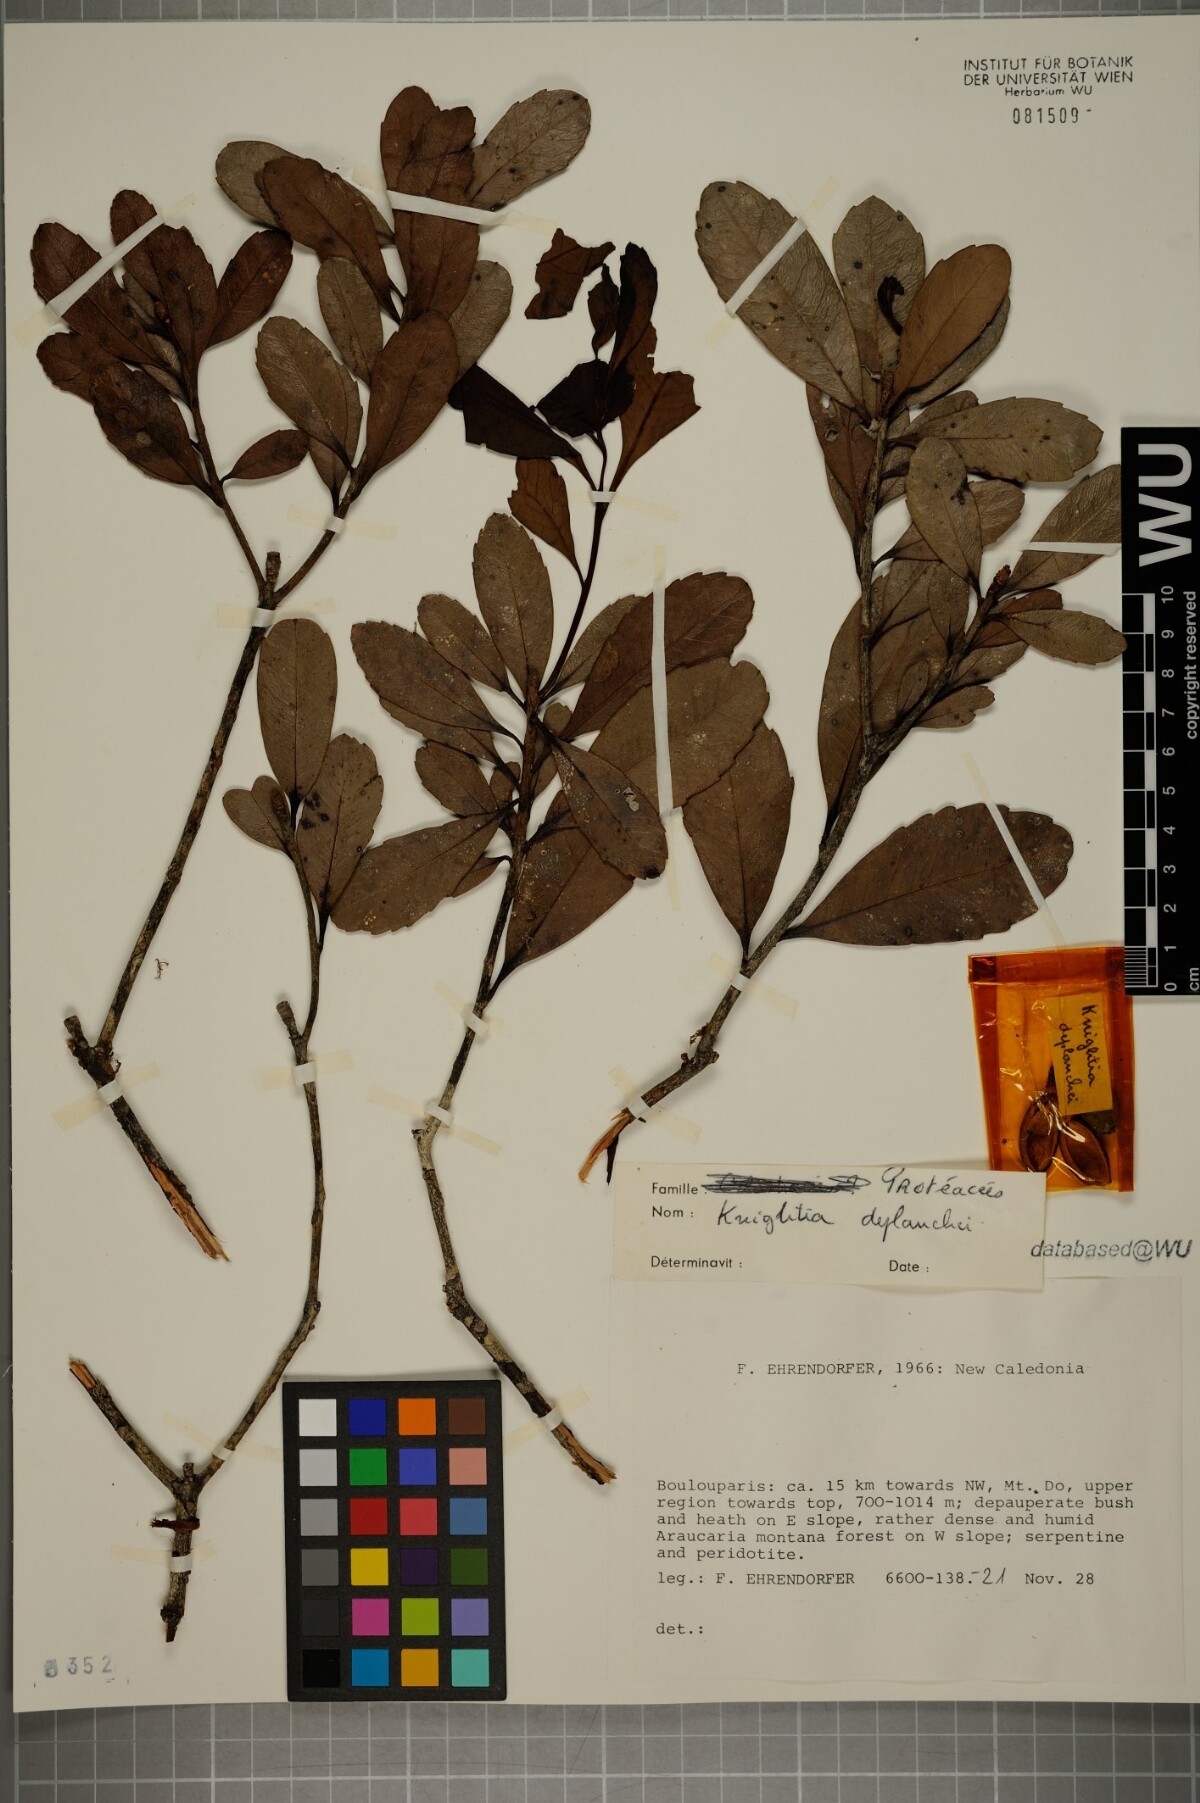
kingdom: Plantae
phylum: Tracheophyta
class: Magnoliopsida
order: Proteales
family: Proteaceae
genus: Eucarpha
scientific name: Eucarpha deplanchei
